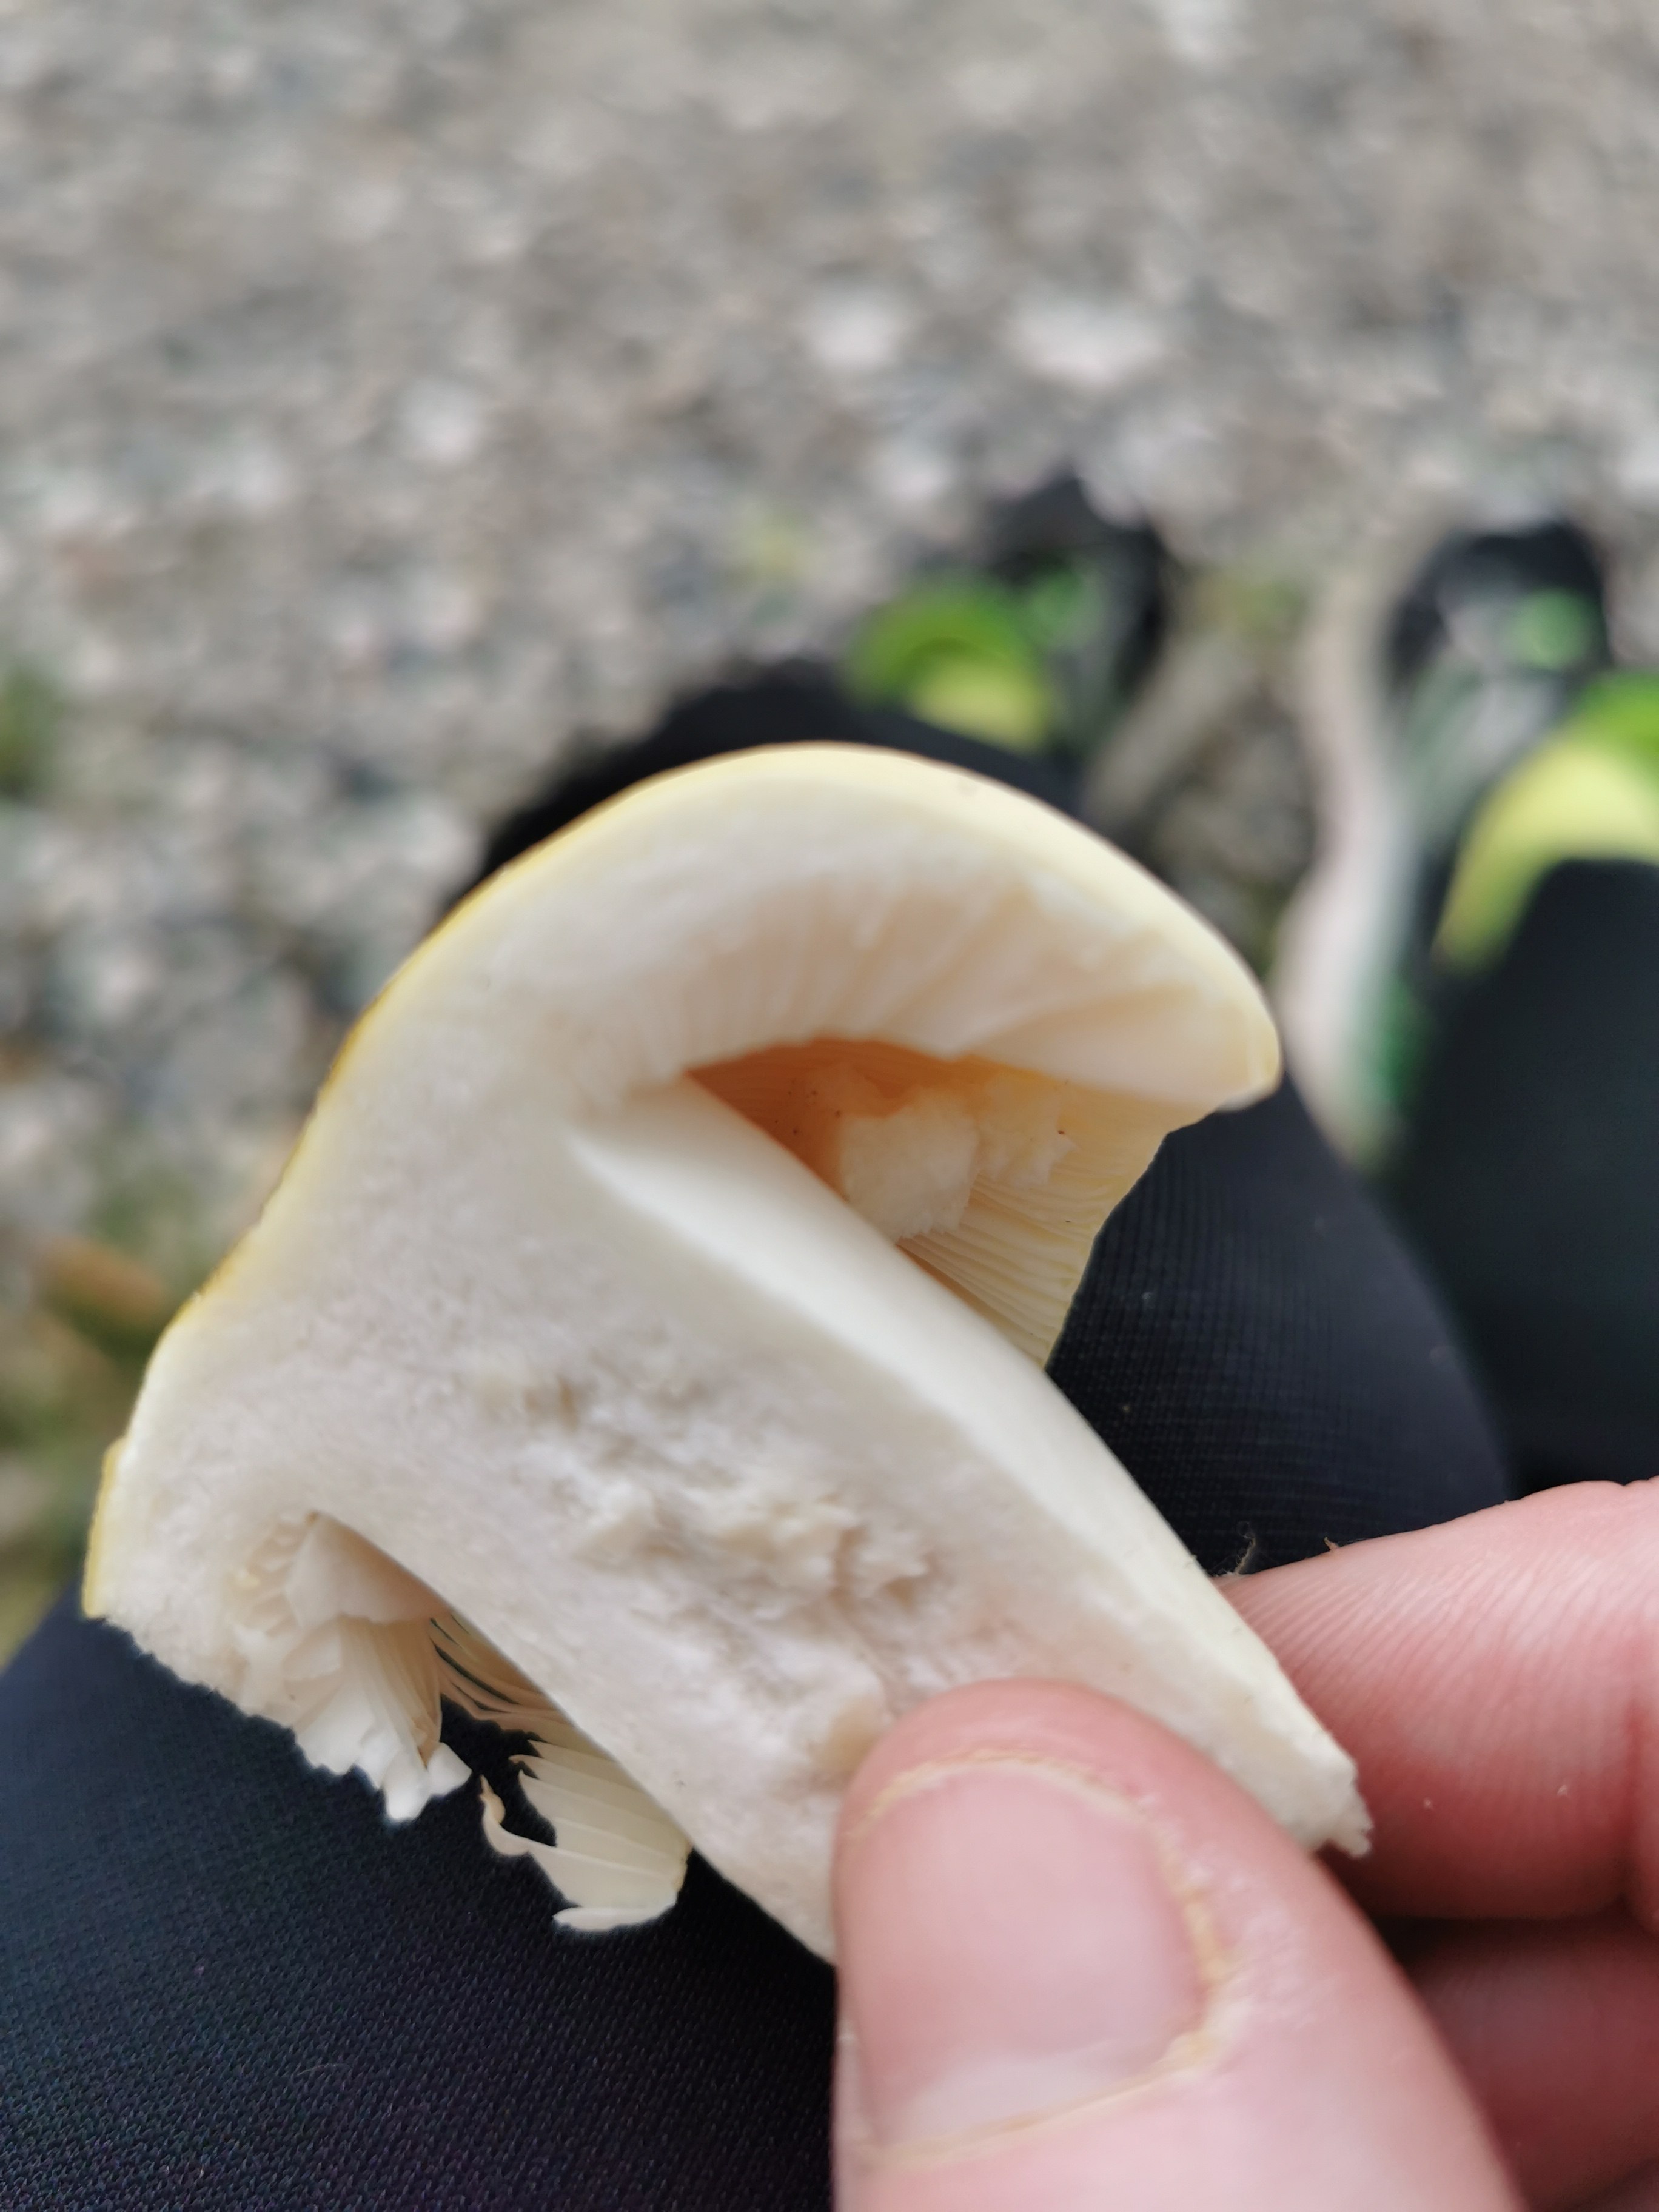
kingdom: Fungi
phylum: Basidiomycota
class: Agaricomycetes
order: Russulales
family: Russulaceae
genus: Russula
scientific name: Russula violeipes
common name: ferskengul skørhat
